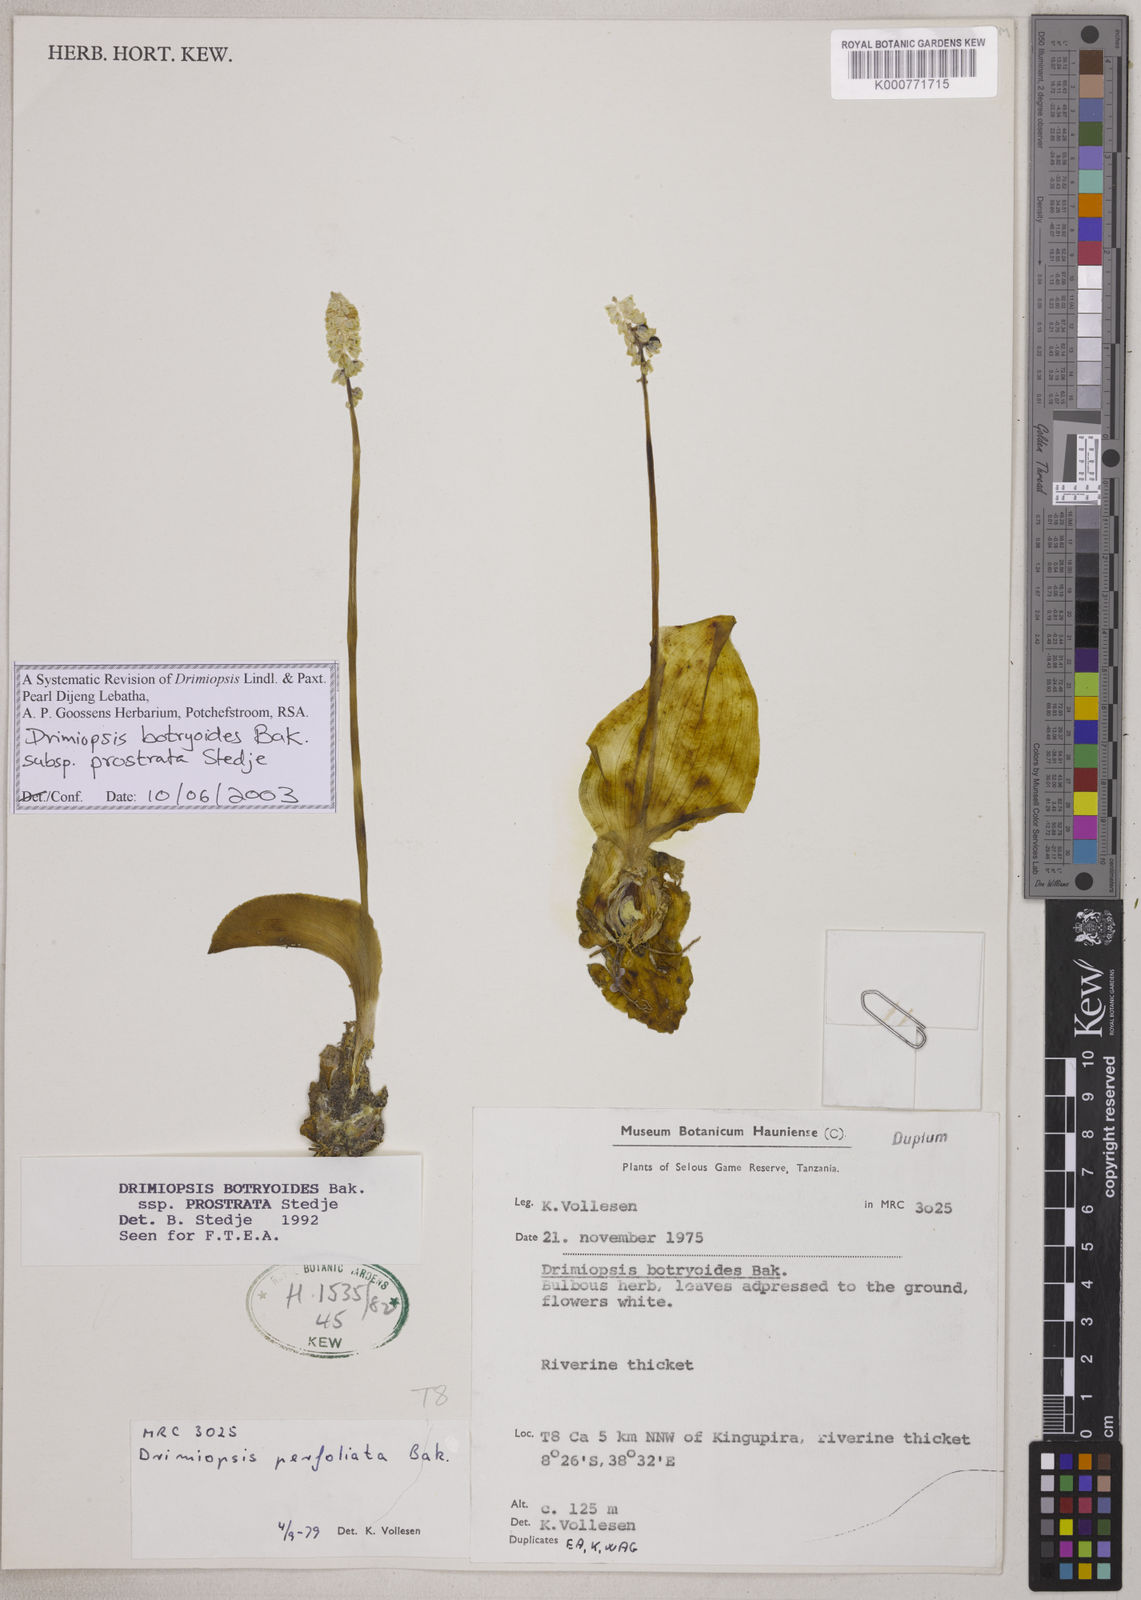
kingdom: Plantae
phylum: Tracheophyta
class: Liliopsida
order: Asparagales
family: Asparagaceae
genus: Drimiopsis
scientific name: Drimiopsis botryoides
